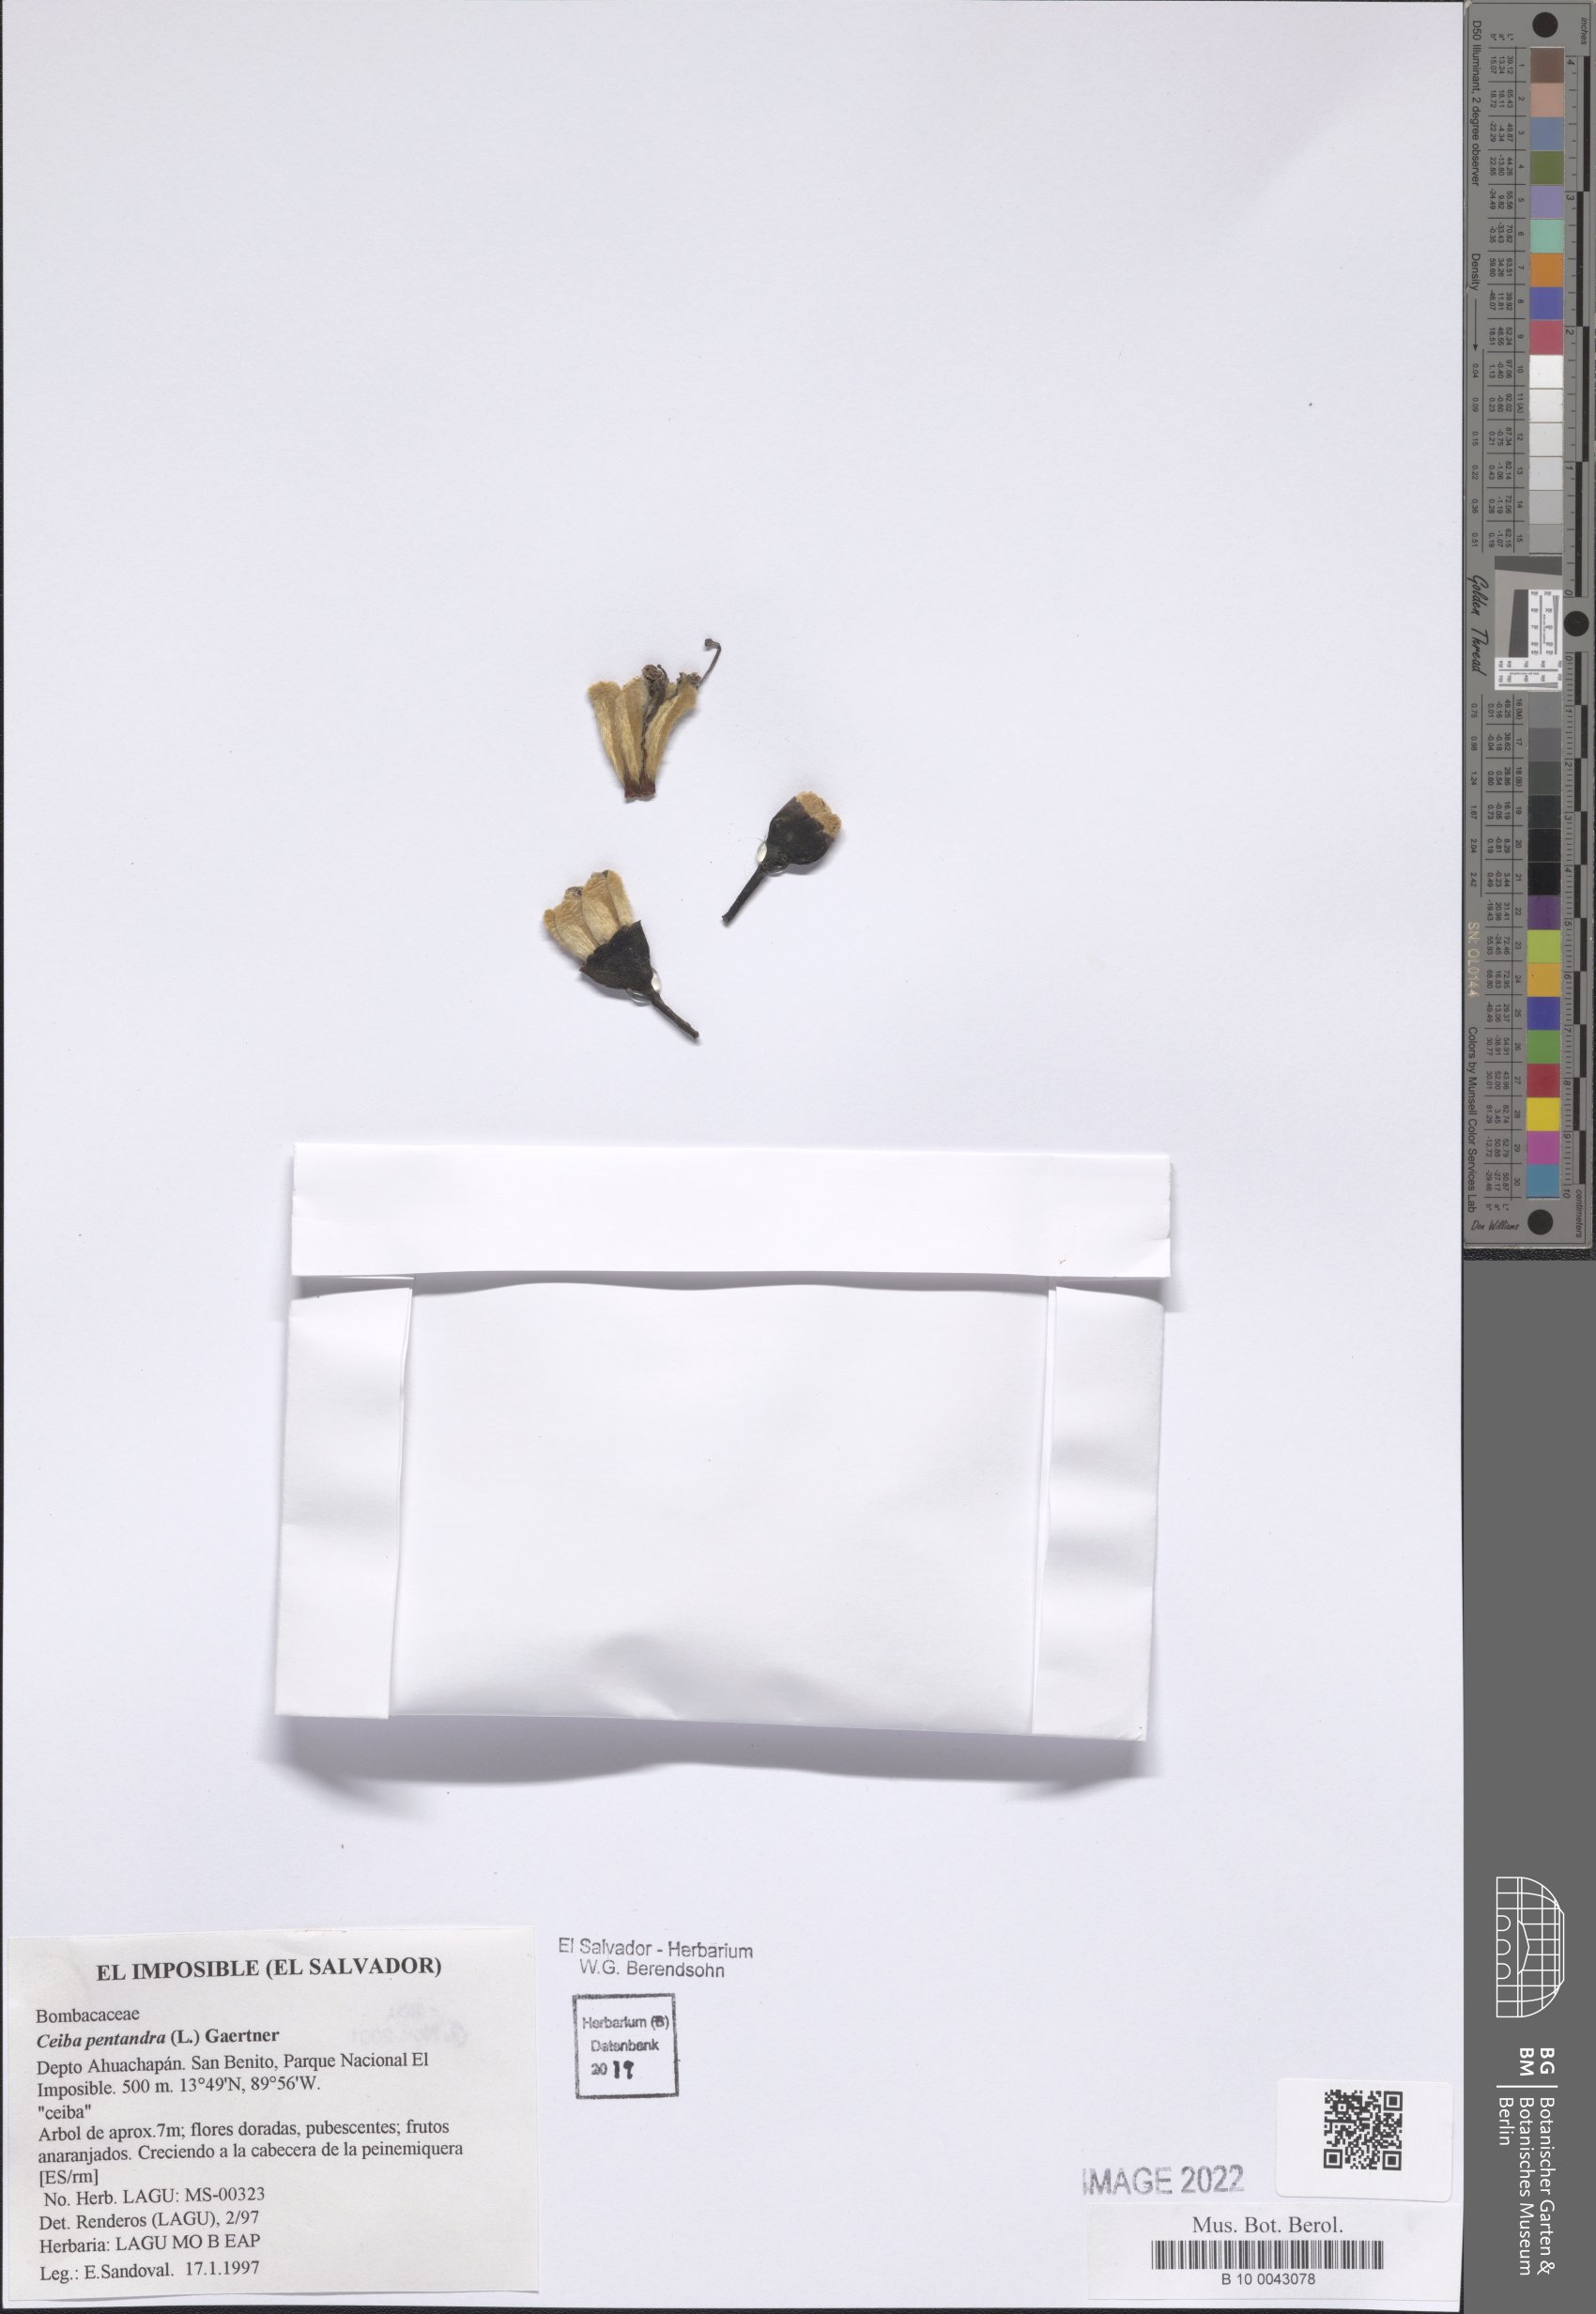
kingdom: Plantae
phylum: Tracheophyta
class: Magnoliopsida
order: Malvales
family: Malvaceae
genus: Ceiba
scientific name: Ceiba pentandra
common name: Kapok
